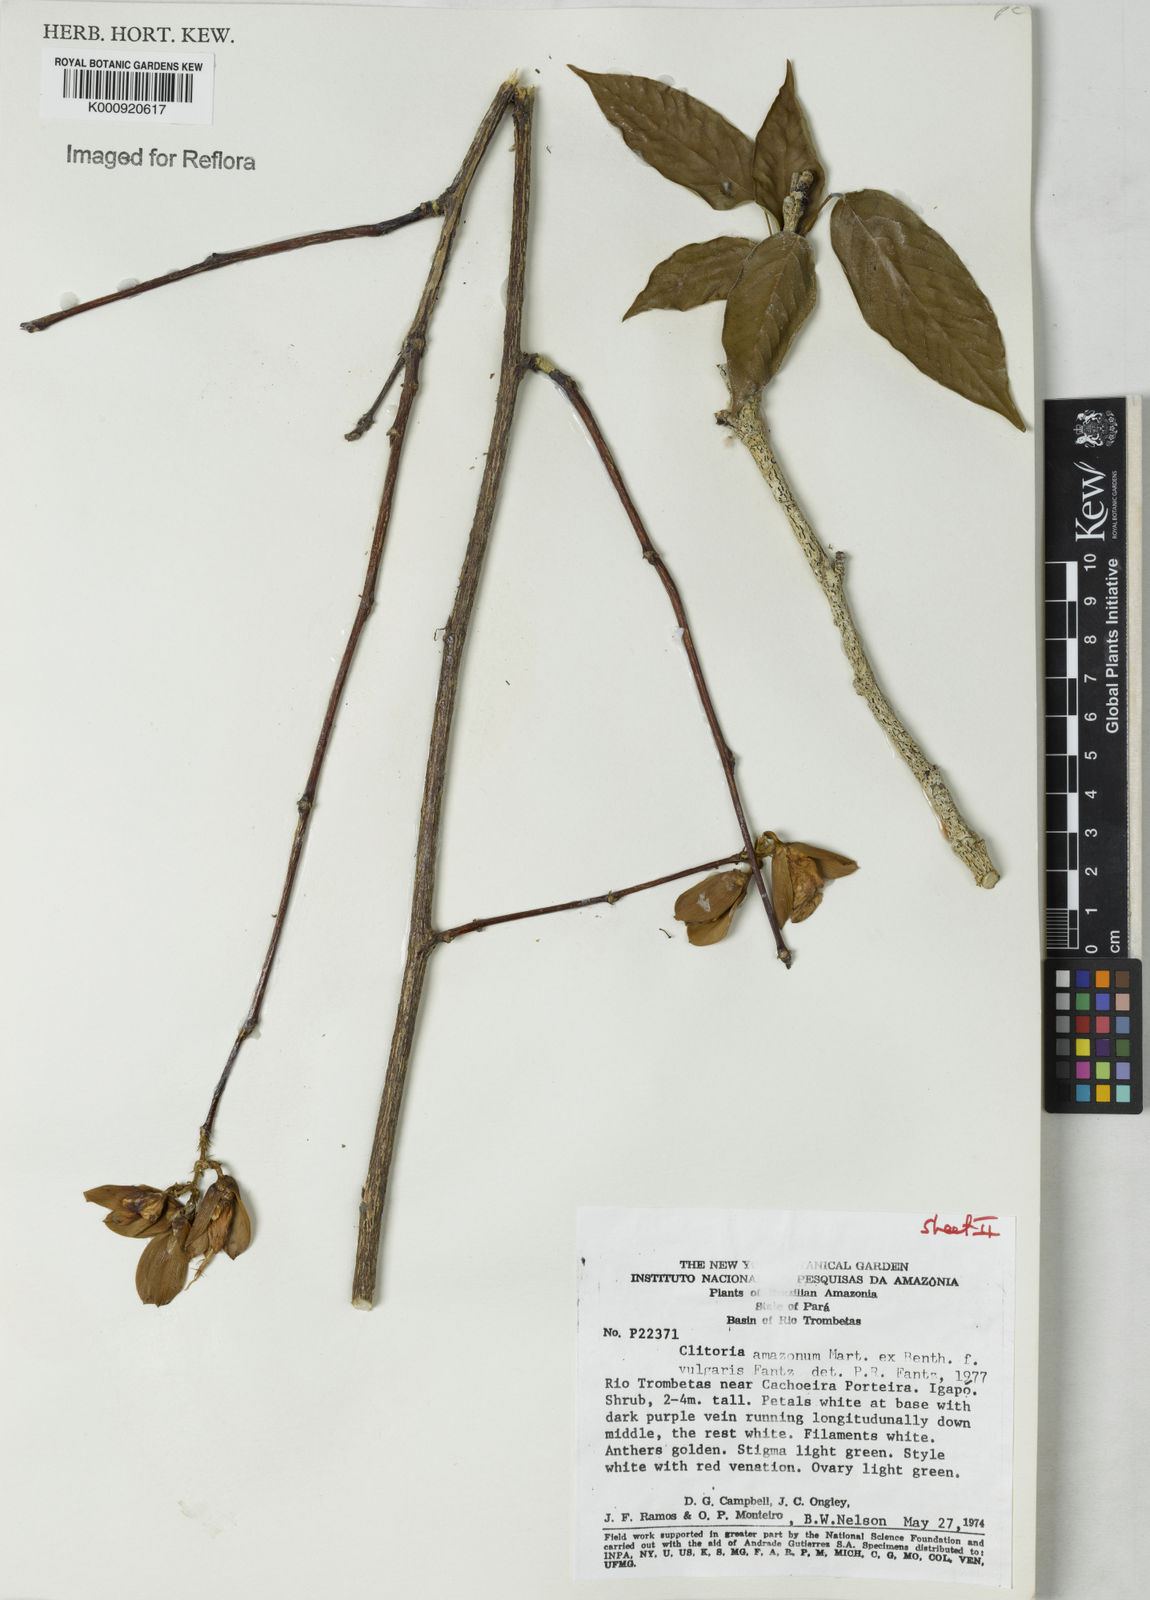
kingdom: Plantae
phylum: Tracheophyta
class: Magnoliopsida
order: Fabales
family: Fabaceae
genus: Clitoria
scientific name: Clitoria amazonum
